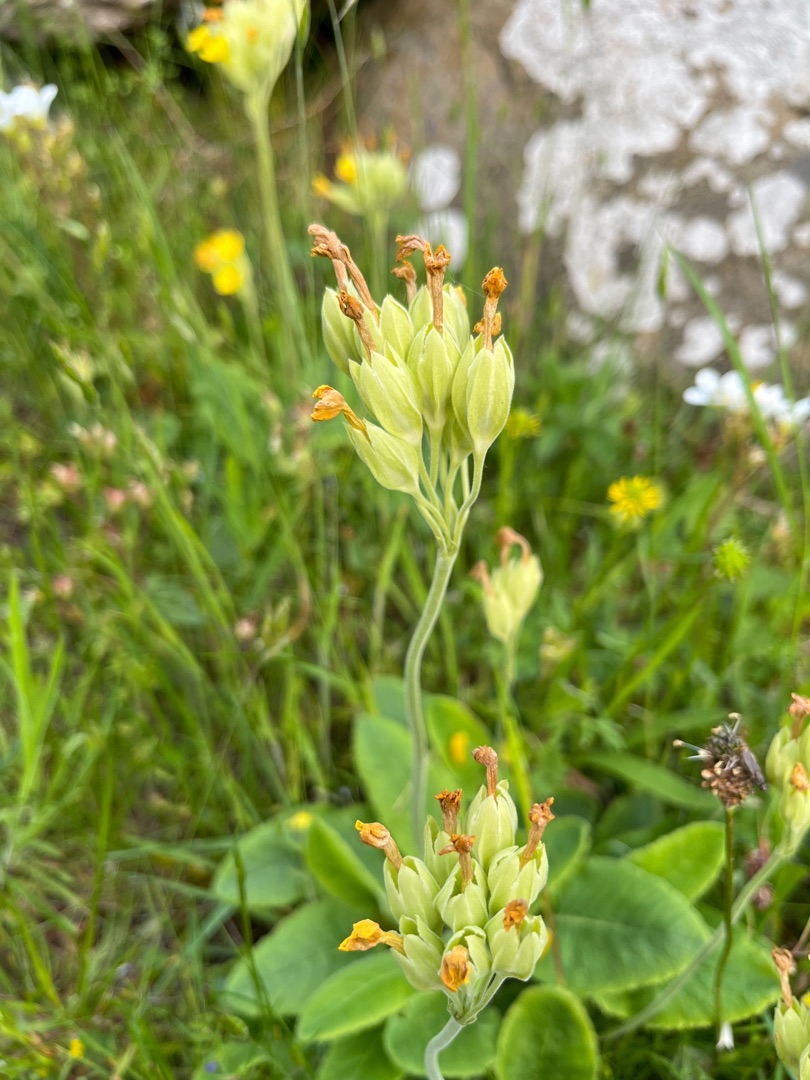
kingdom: Plantae
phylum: Tracheophyta
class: Magnoliopsida
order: Ericales
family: Primulaceae
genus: Primula
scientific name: Primula veris
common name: Hulkravet kodriver
